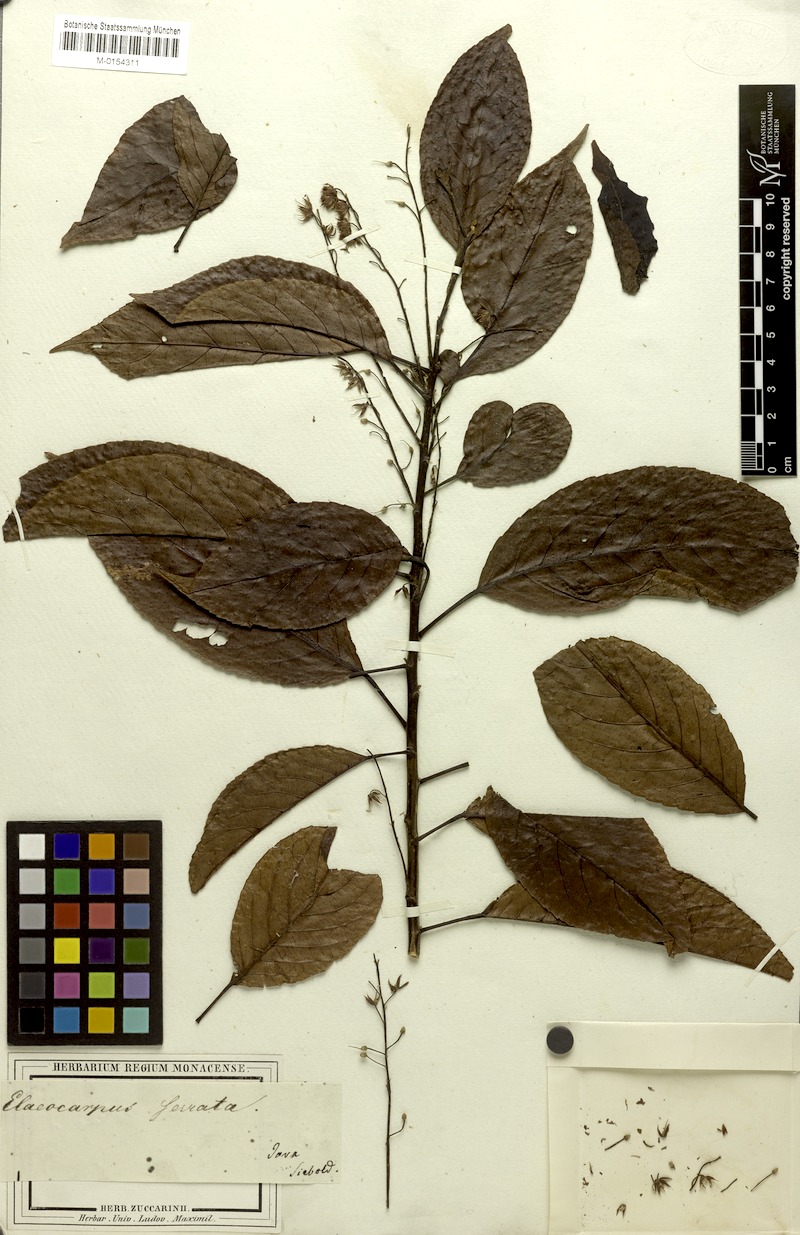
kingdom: Plantae
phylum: Tracheophyta
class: Magnoliopsida
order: Oxalidales
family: Elaeocarpaceae
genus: Elaeocarpus
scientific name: Elaeocarpus serratus
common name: Ceylon-olive
